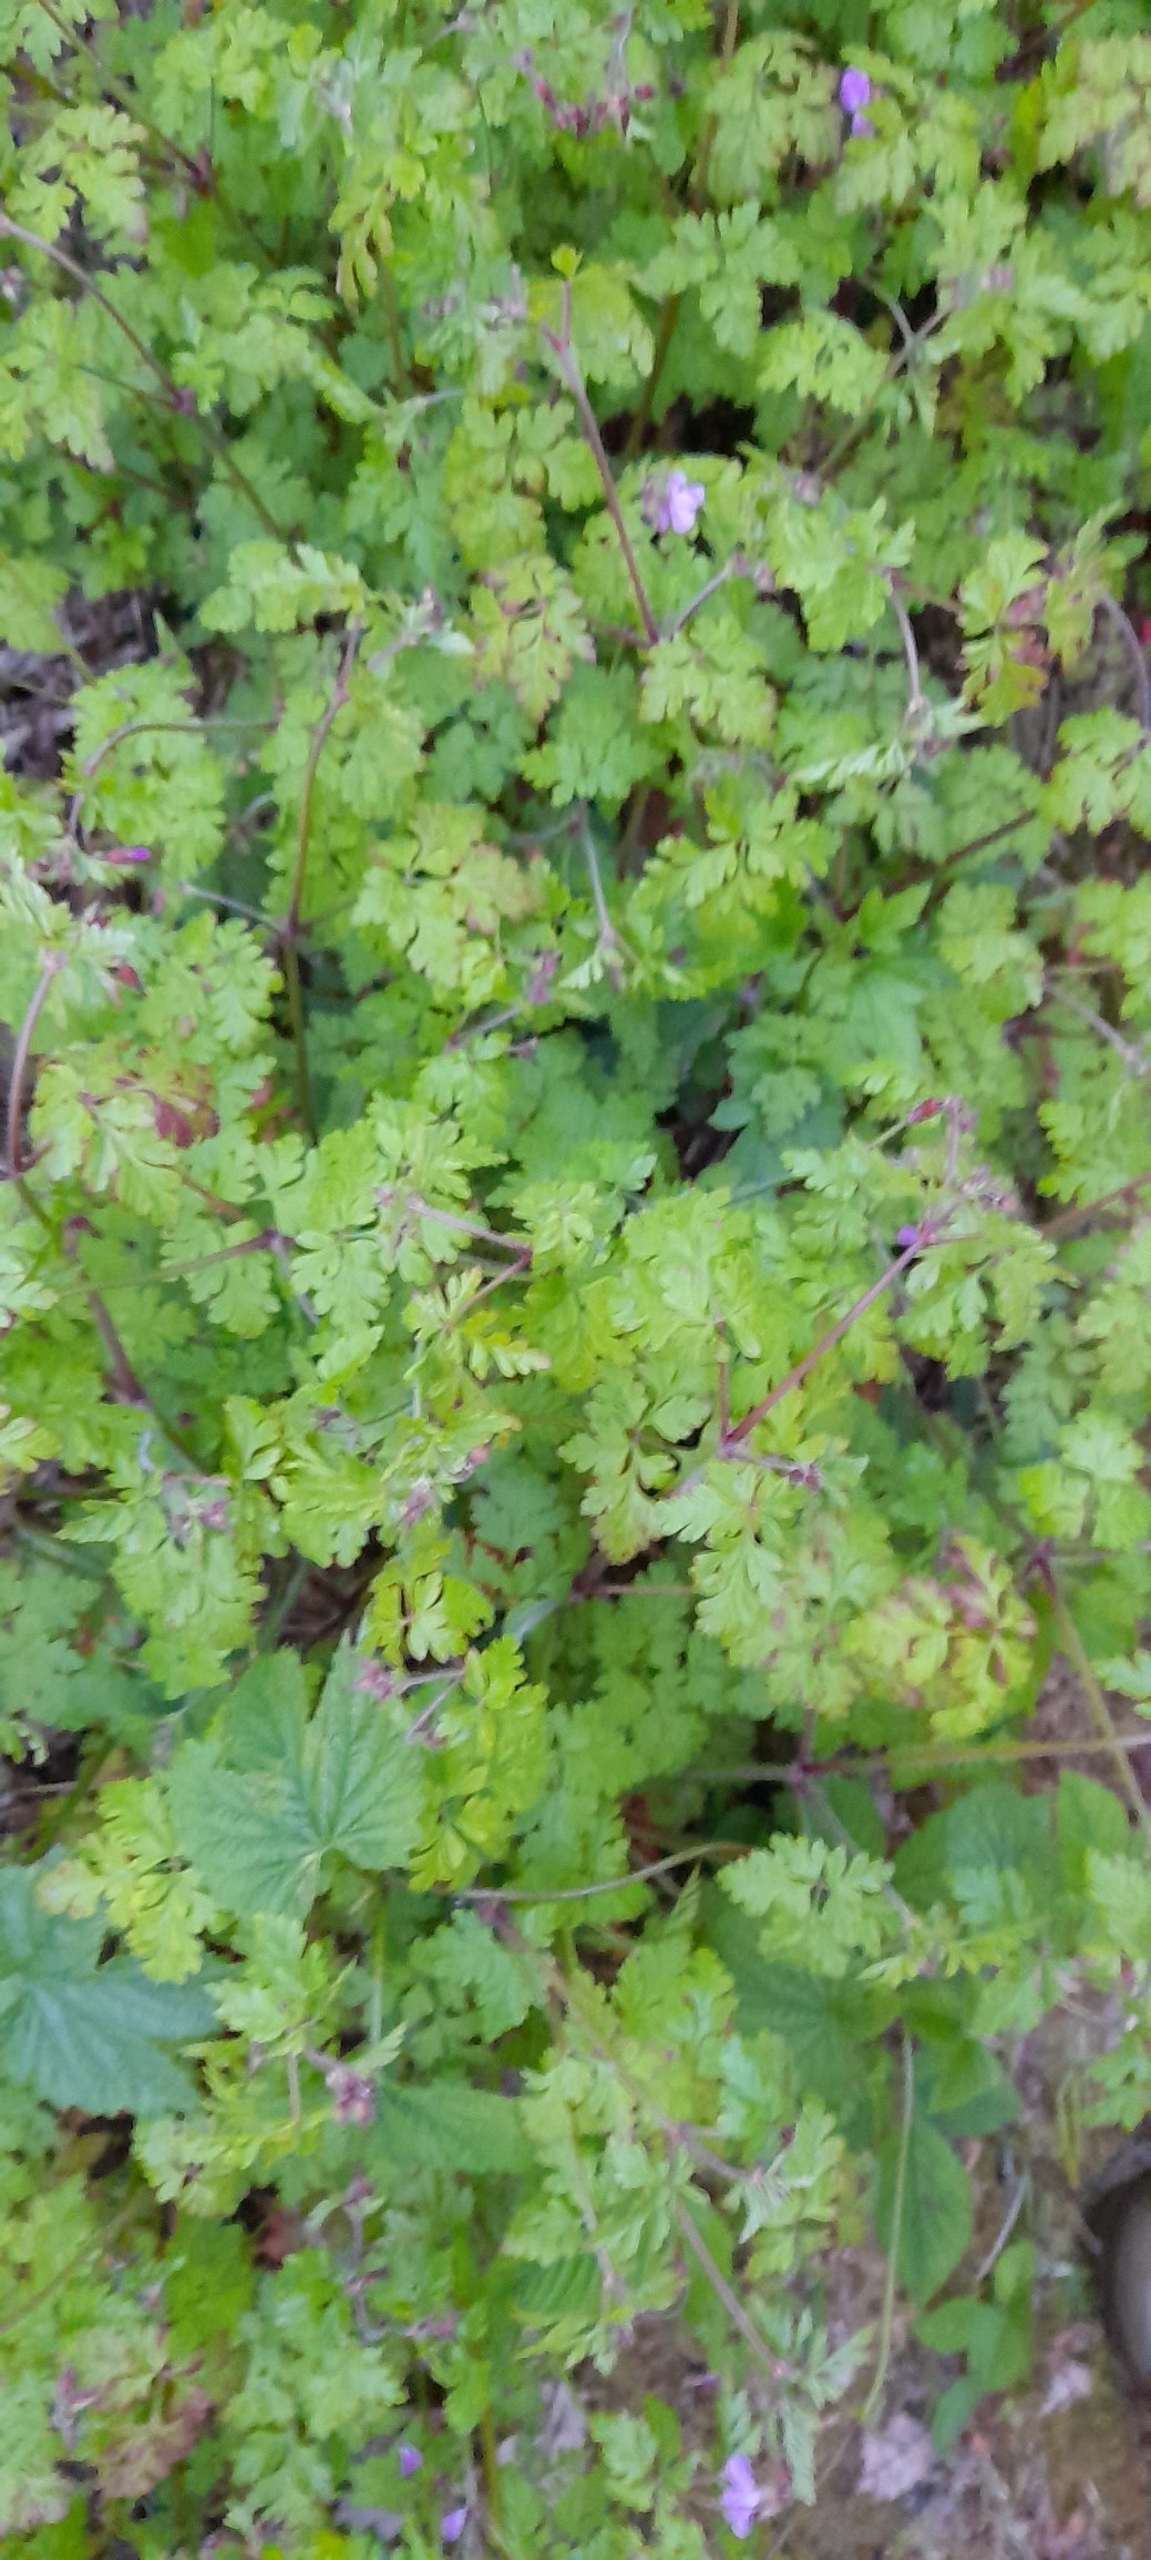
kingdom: Plantae
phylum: Tracheophyta
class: Magnoliopsida
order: Geraniales
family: Geraniaceae
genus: Geranium
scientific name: Geranium robertianum
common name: Stinkende storkenæb
